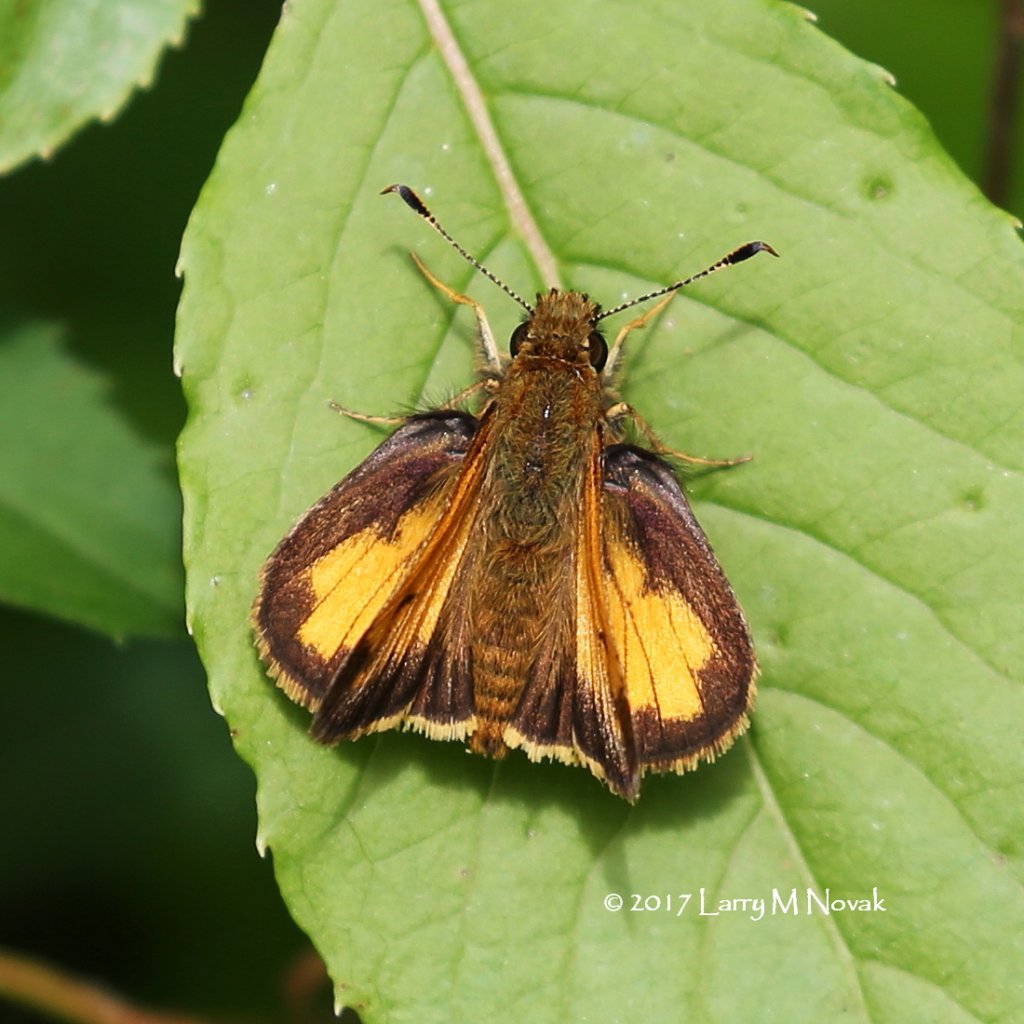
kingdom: Animalia
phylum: Arthropoda
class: Insecta
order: Lepidoptera
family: Hesperiidae
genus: Lon
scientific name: Lon hobomok
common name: Hobomok Skipper
